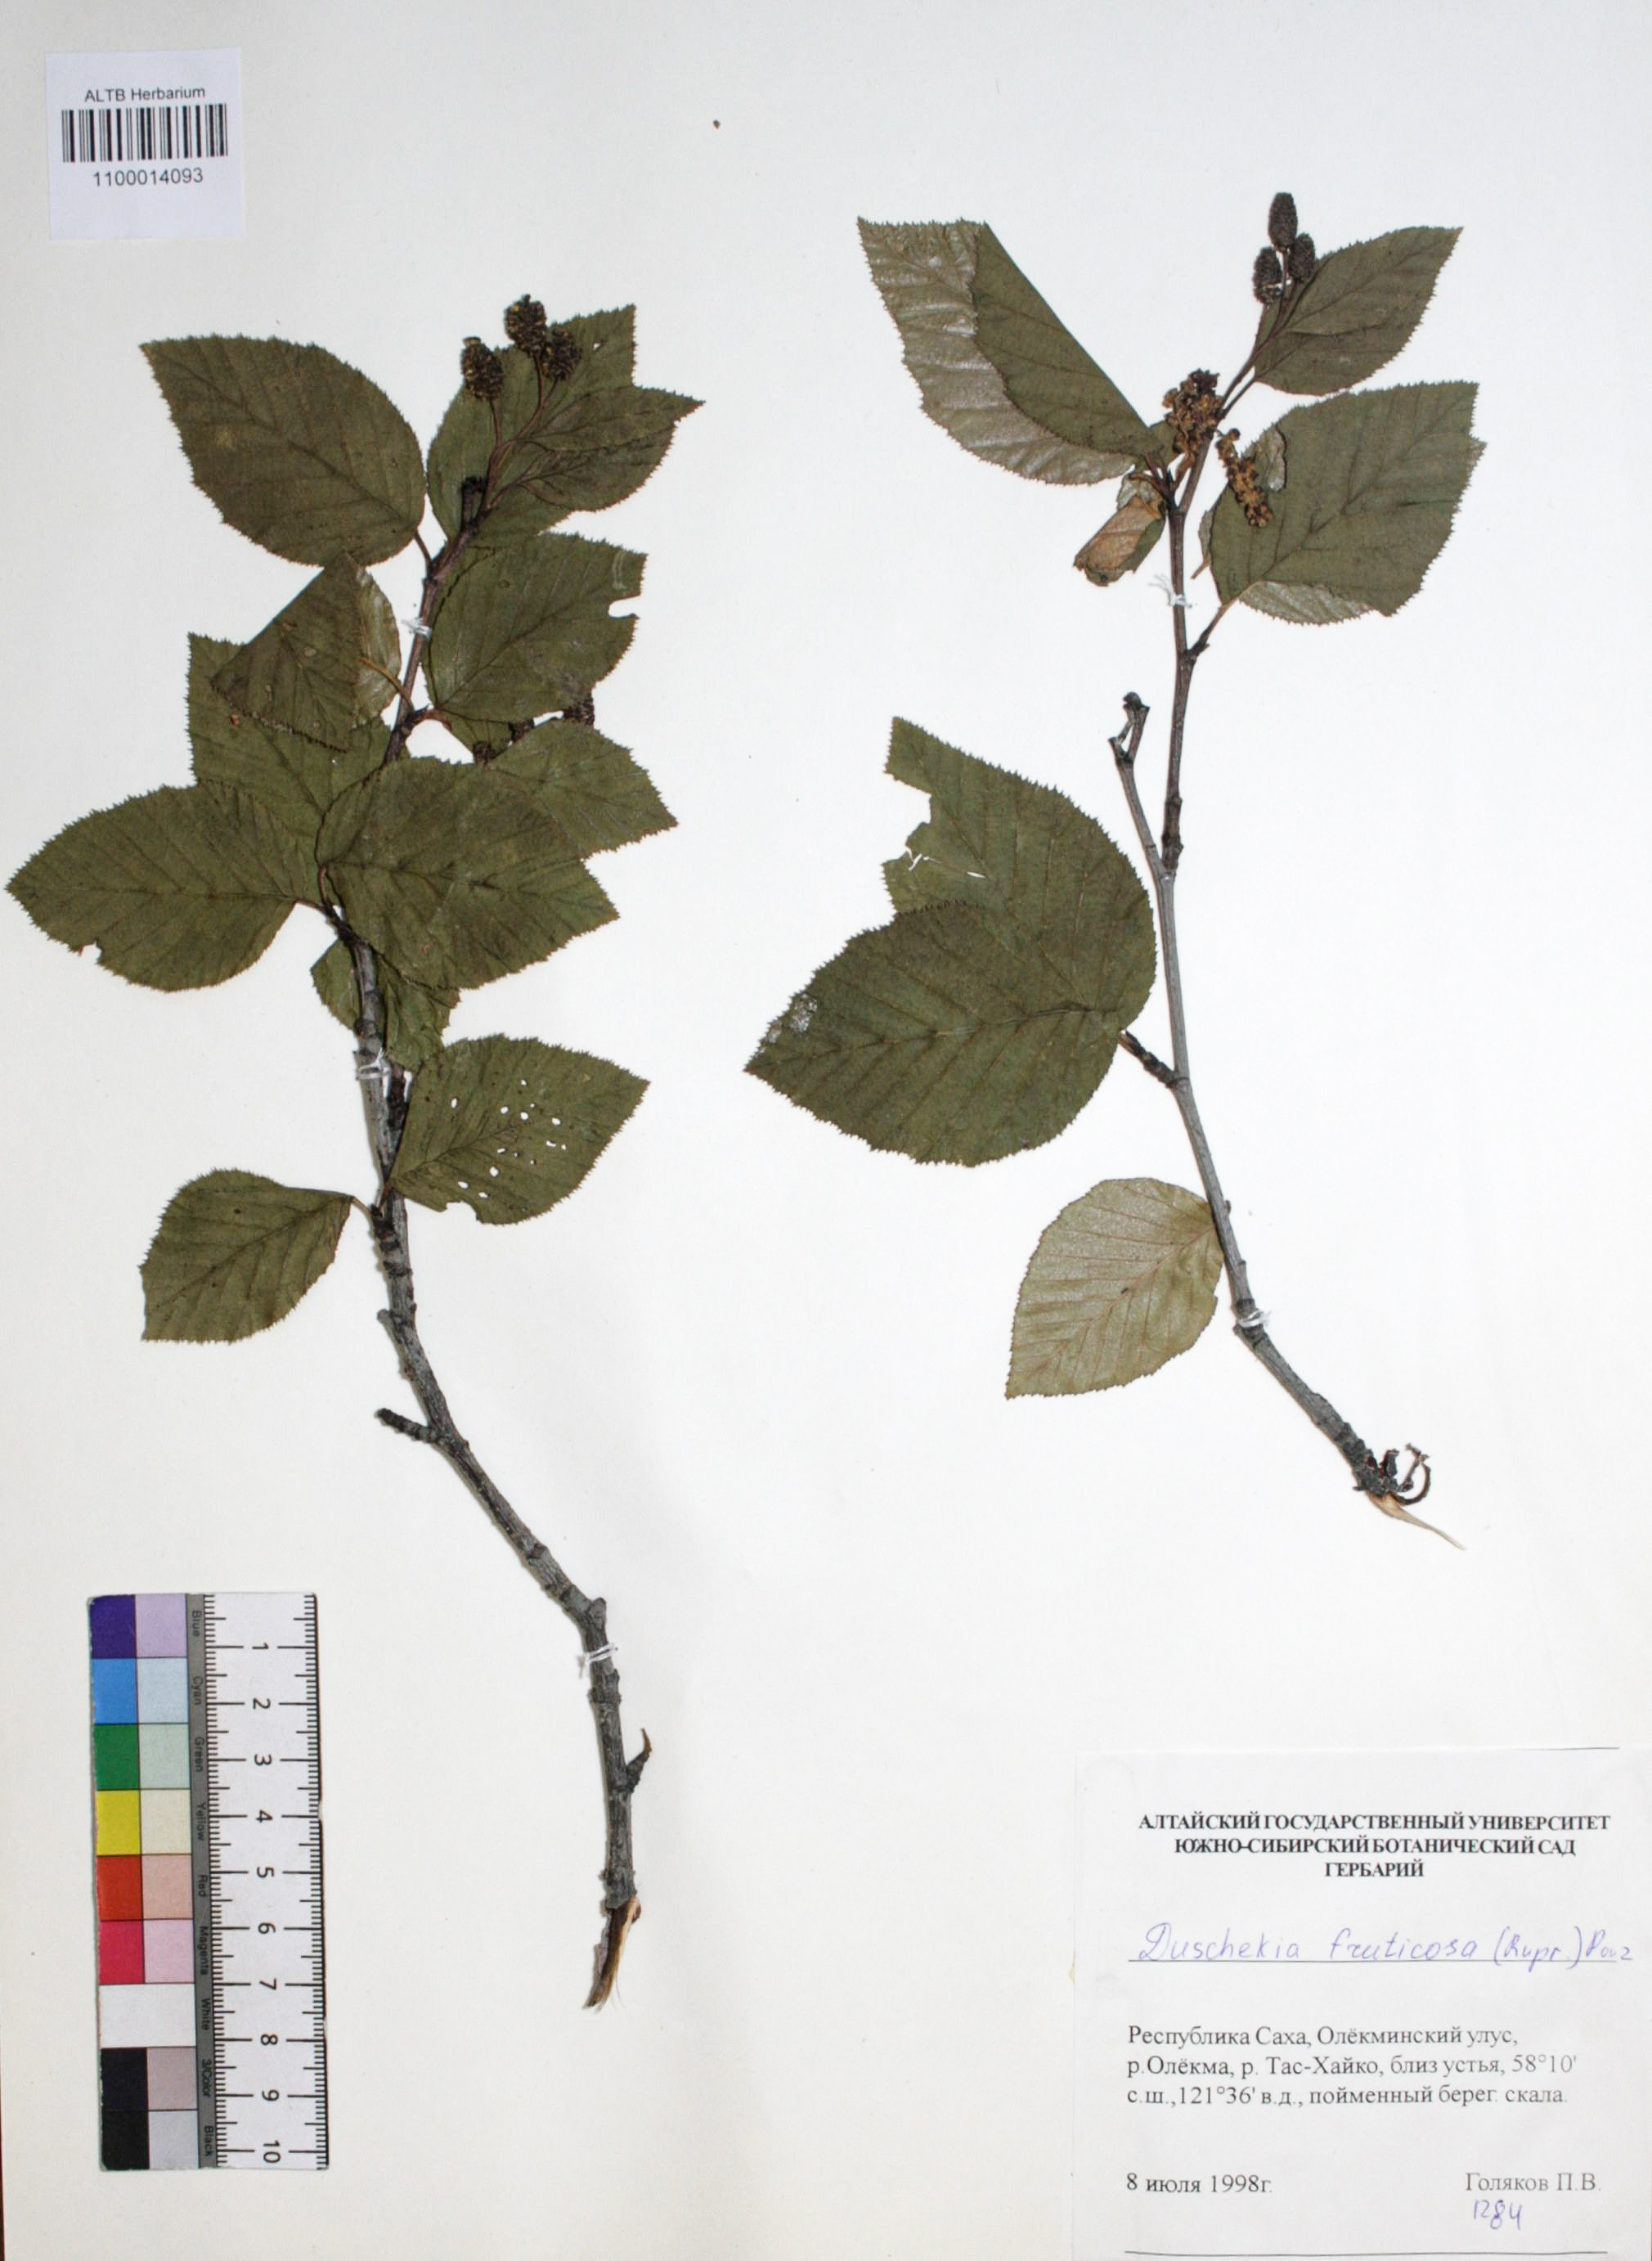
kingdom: Plantae
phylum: Tracheophyta
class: Magnoliopsida
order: Fagales
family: Betulaceae
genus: Alnus
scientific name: Alnus alnobetula
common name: Green alder
